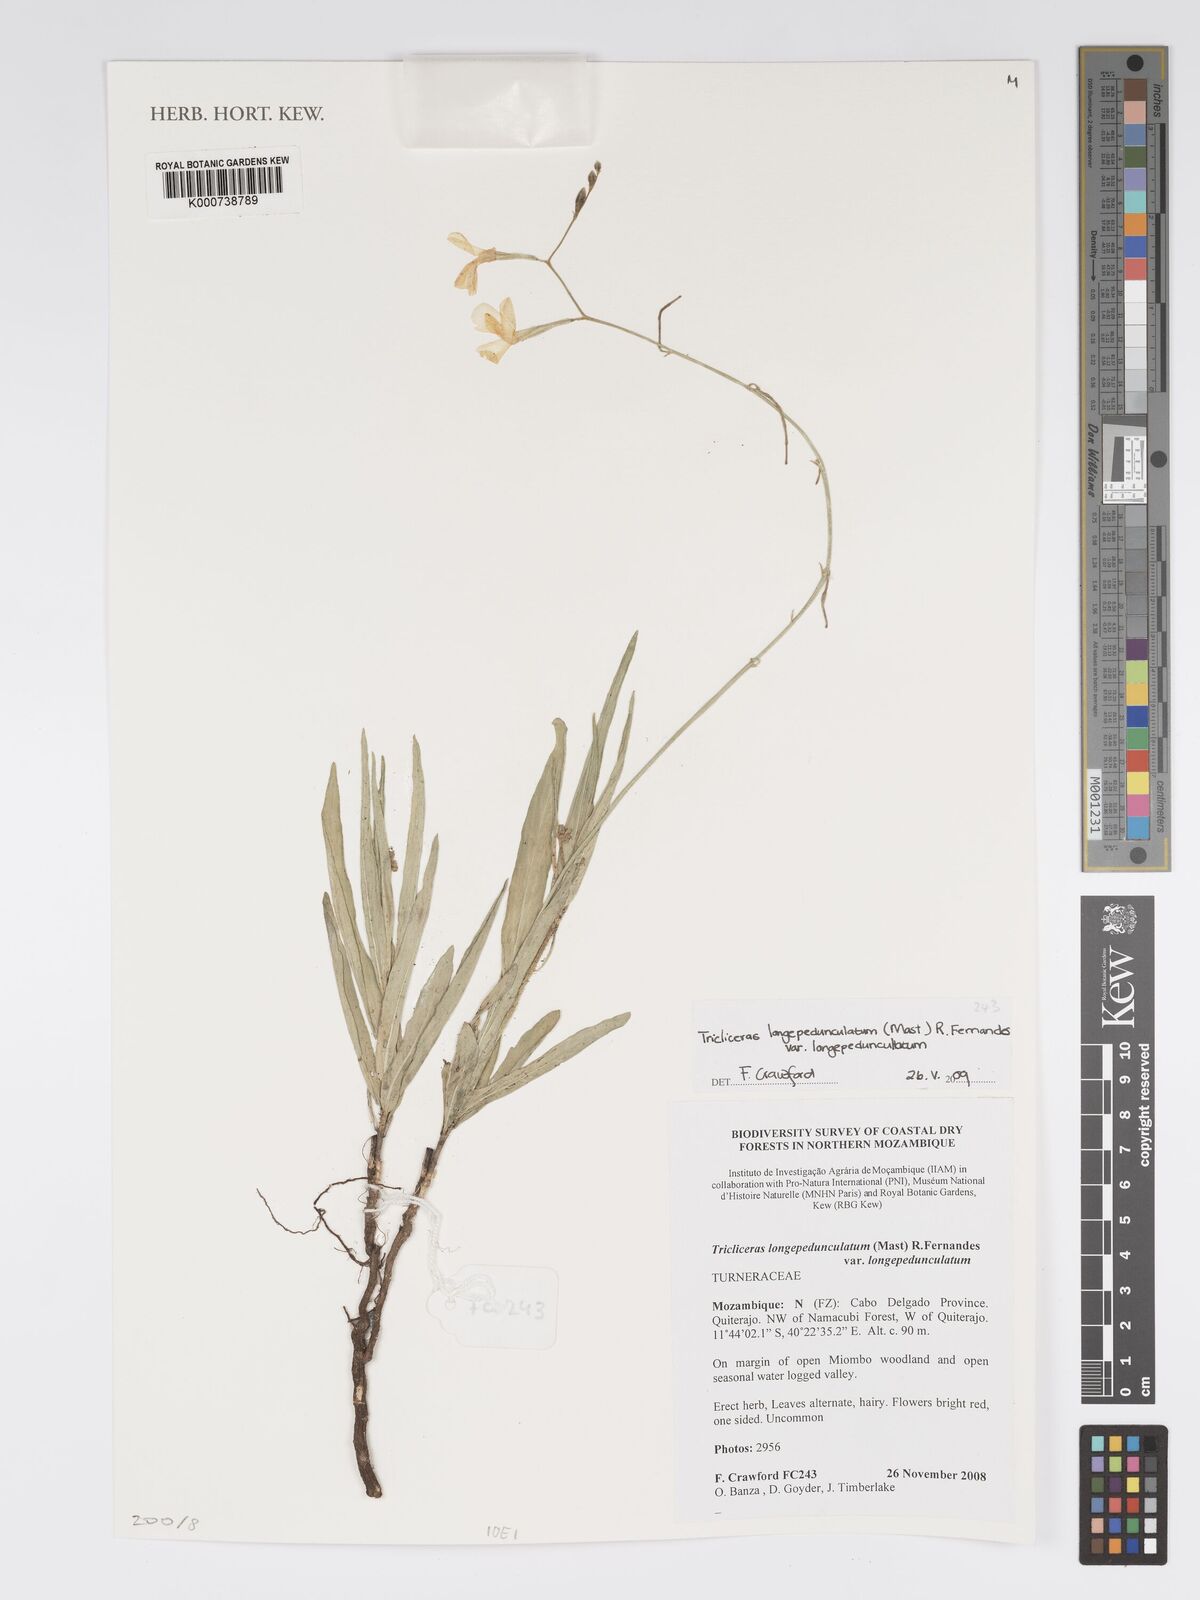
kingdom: Plantae
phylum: Tracheophyta
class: Magnoliopsida
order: Malpighiales
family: Turneraceae
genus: Tricliceras
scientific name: Tricliceras longepedunculatum
